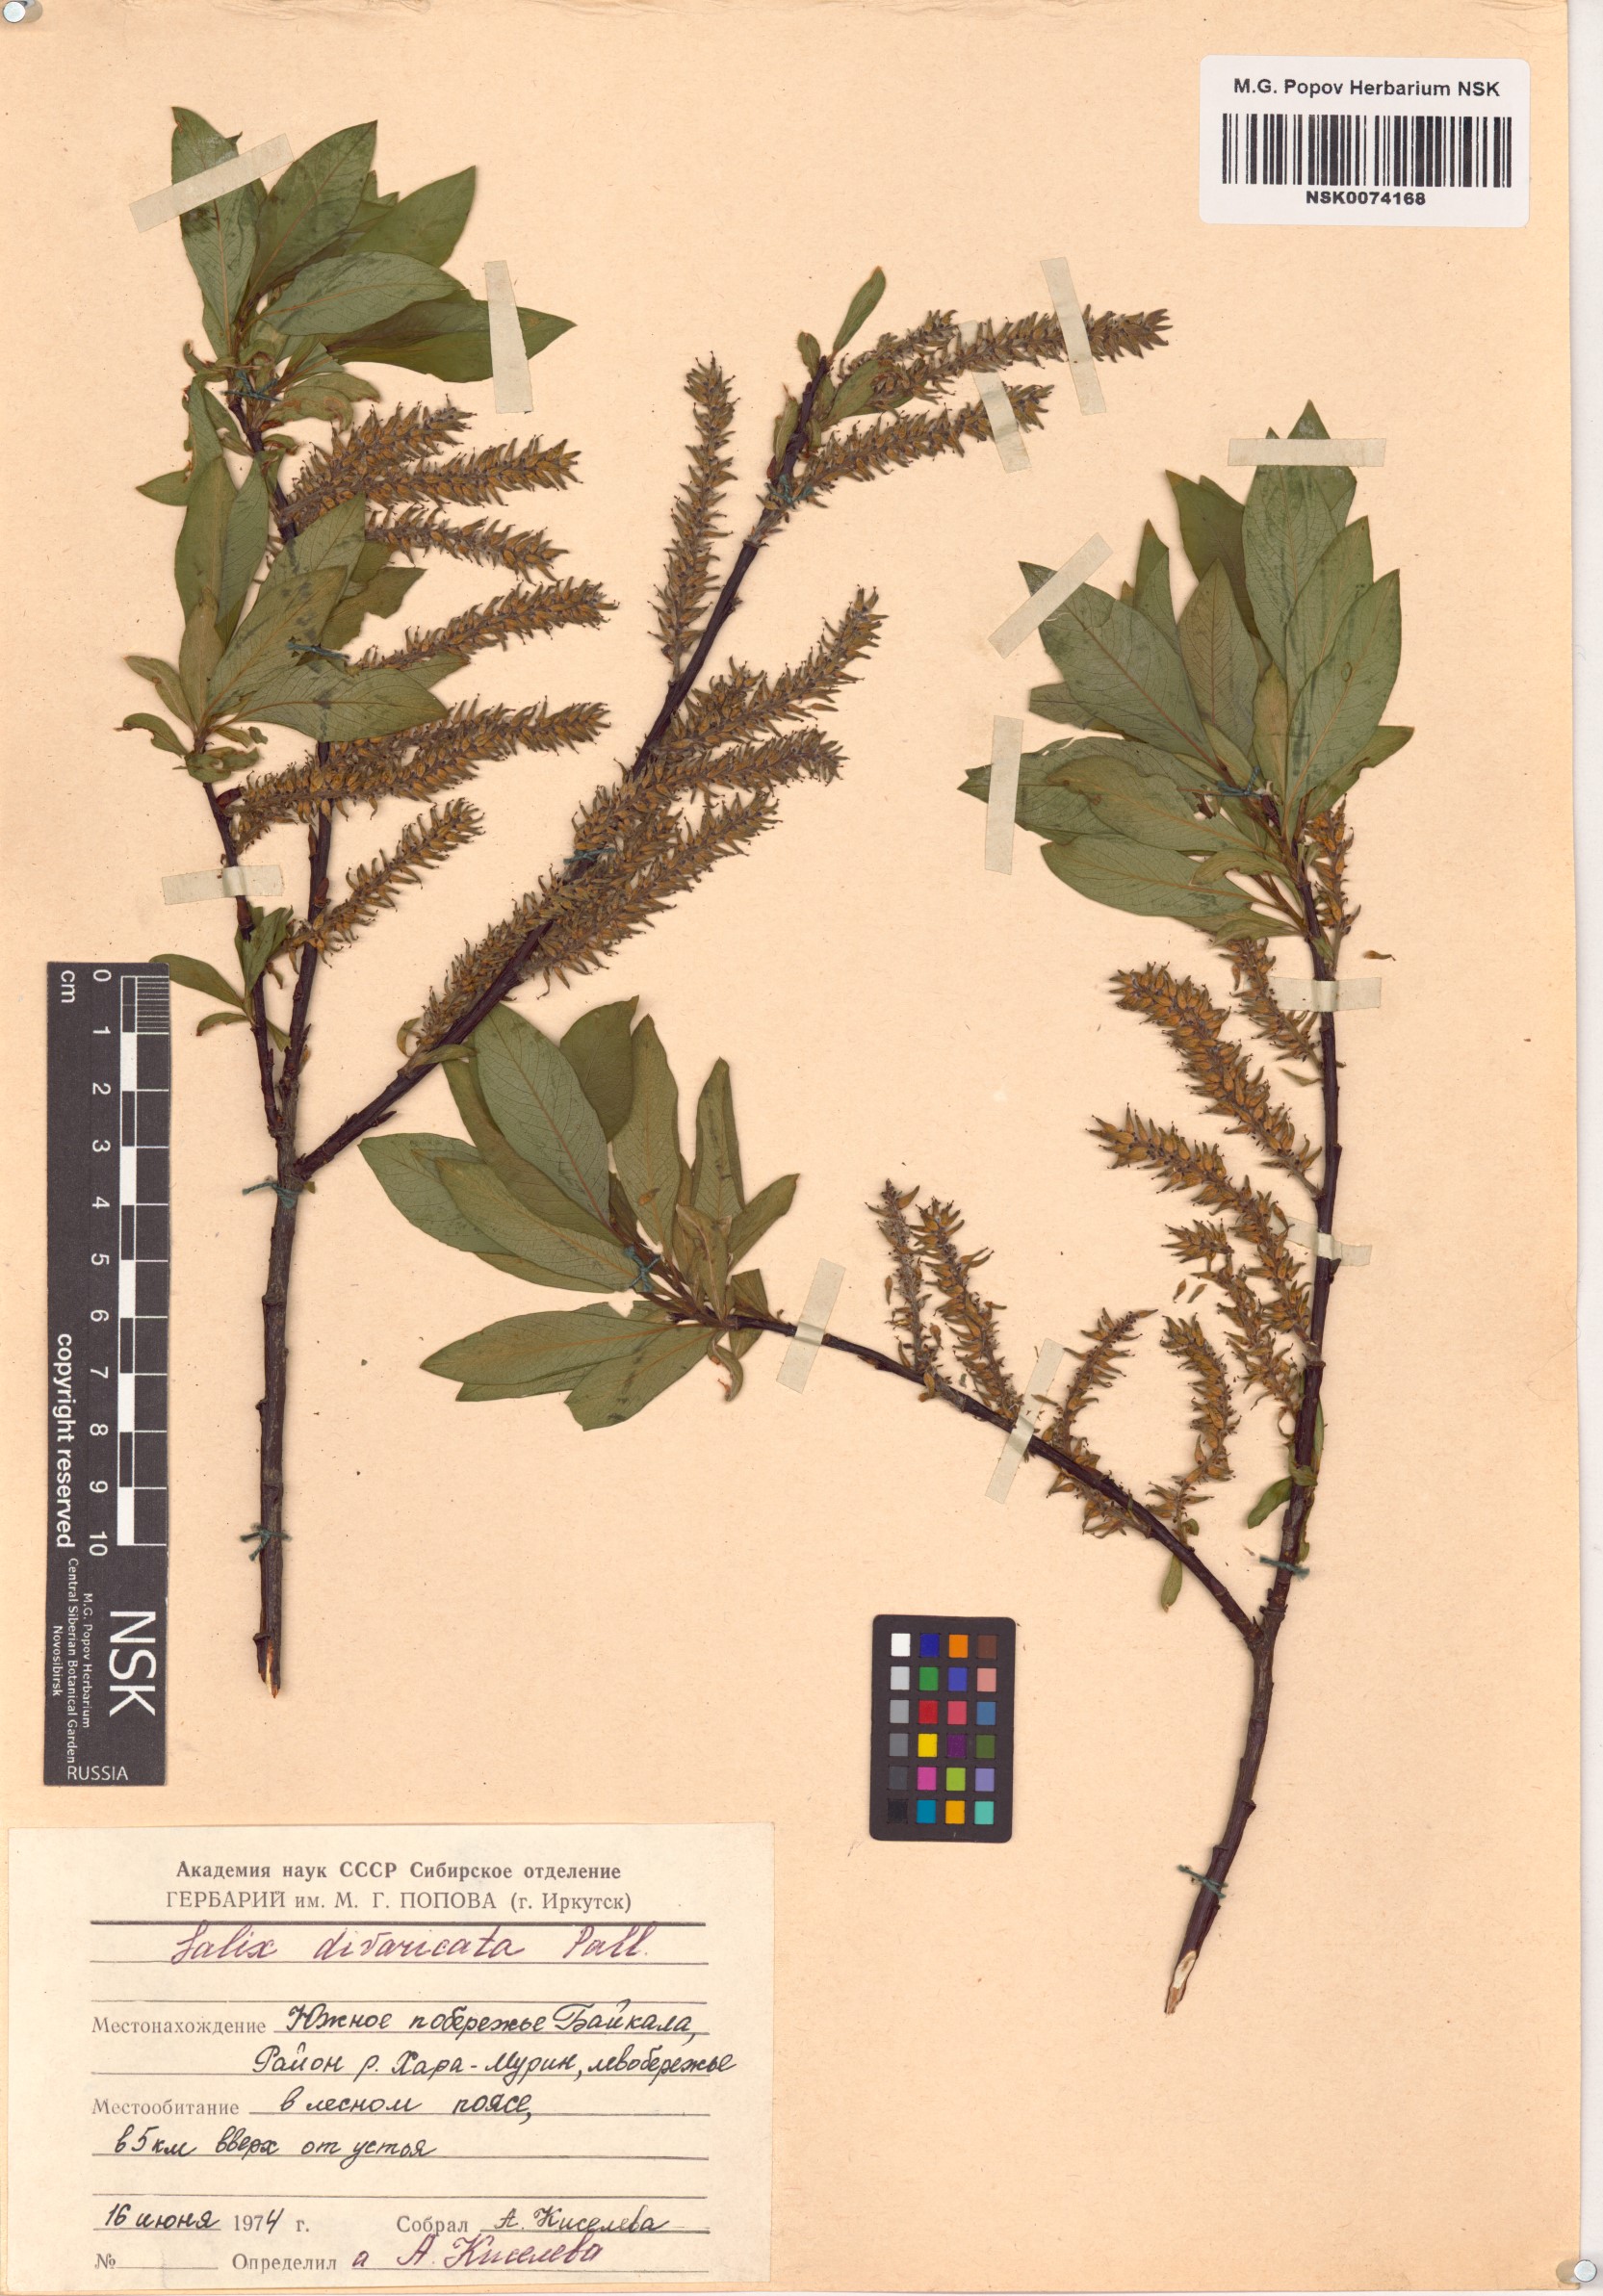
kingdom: Plantae
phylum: Tracheophyta
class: Magnoliopsida
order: Malpighiales
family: Salicaceae
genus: Salix
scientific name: Salix divaricata
